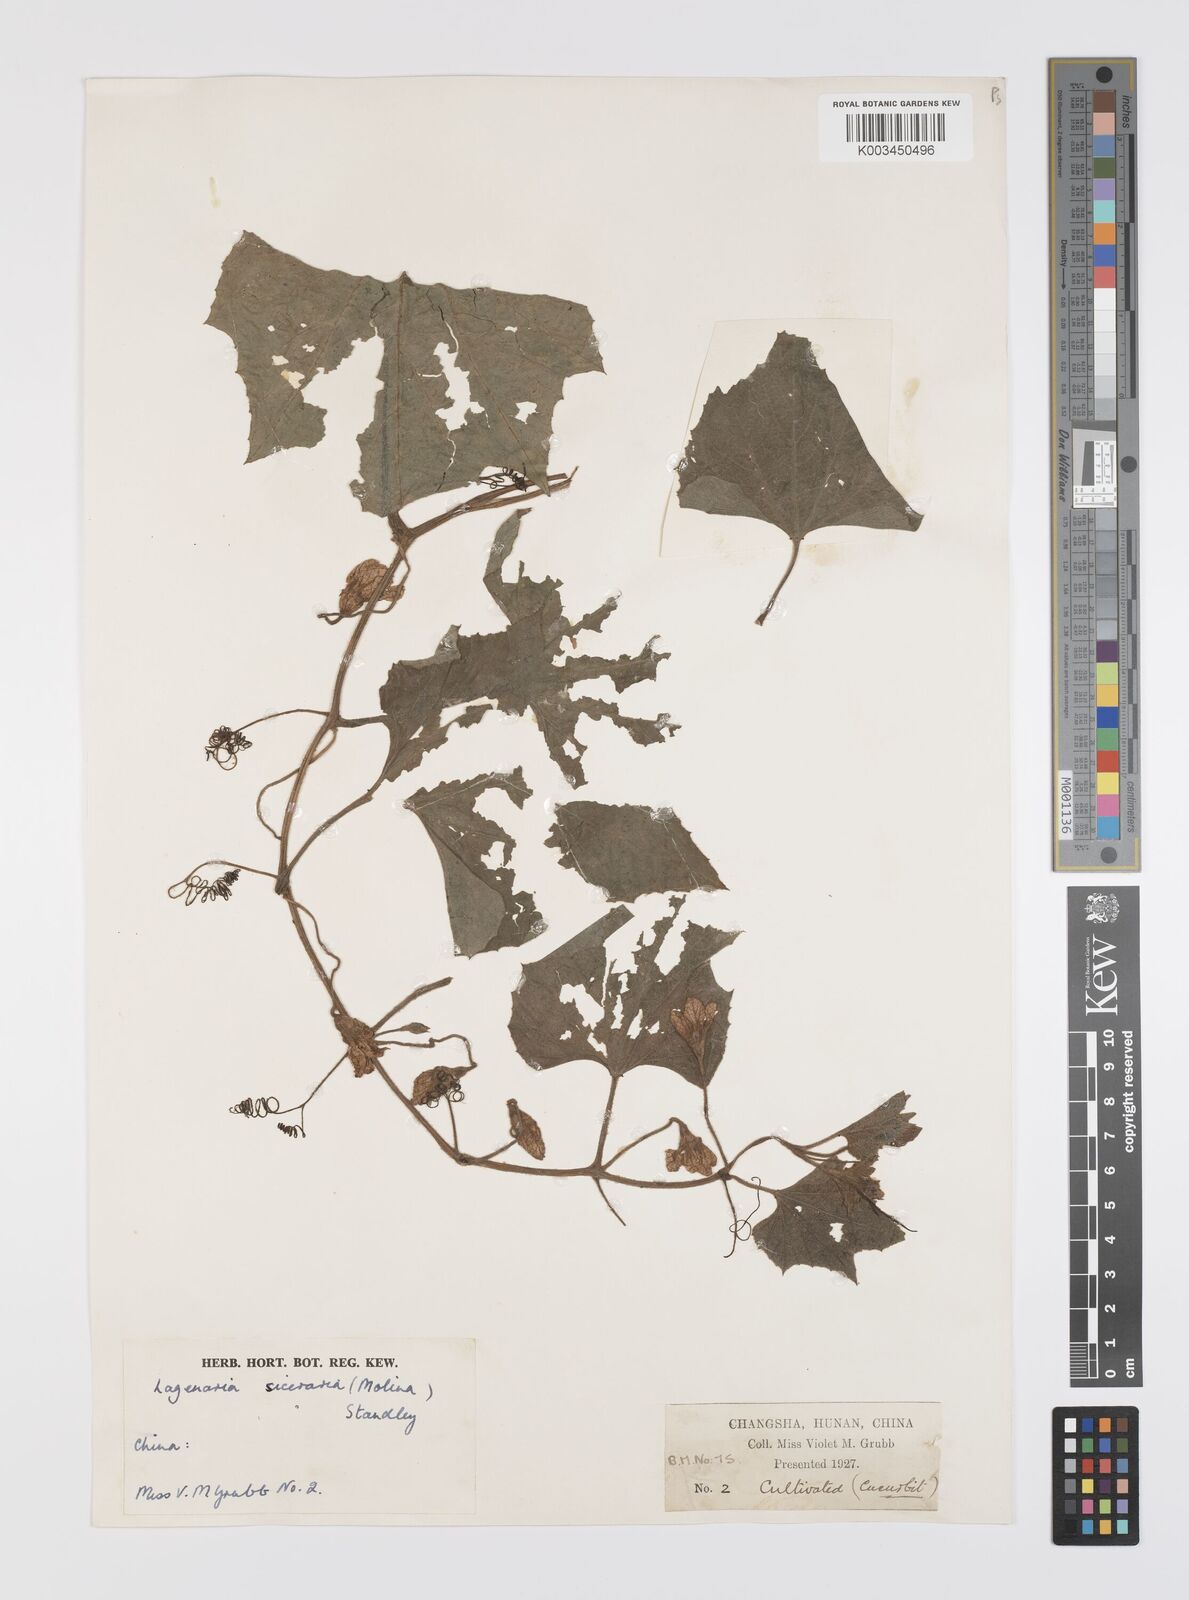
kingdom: Plantae
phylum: Tracheophyta
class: Magnoliopsida
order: Cucurbitales
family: Cucurbitaceae
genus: Lagenaria
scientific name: Lagenaria siceraria
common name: Bottle gourd
